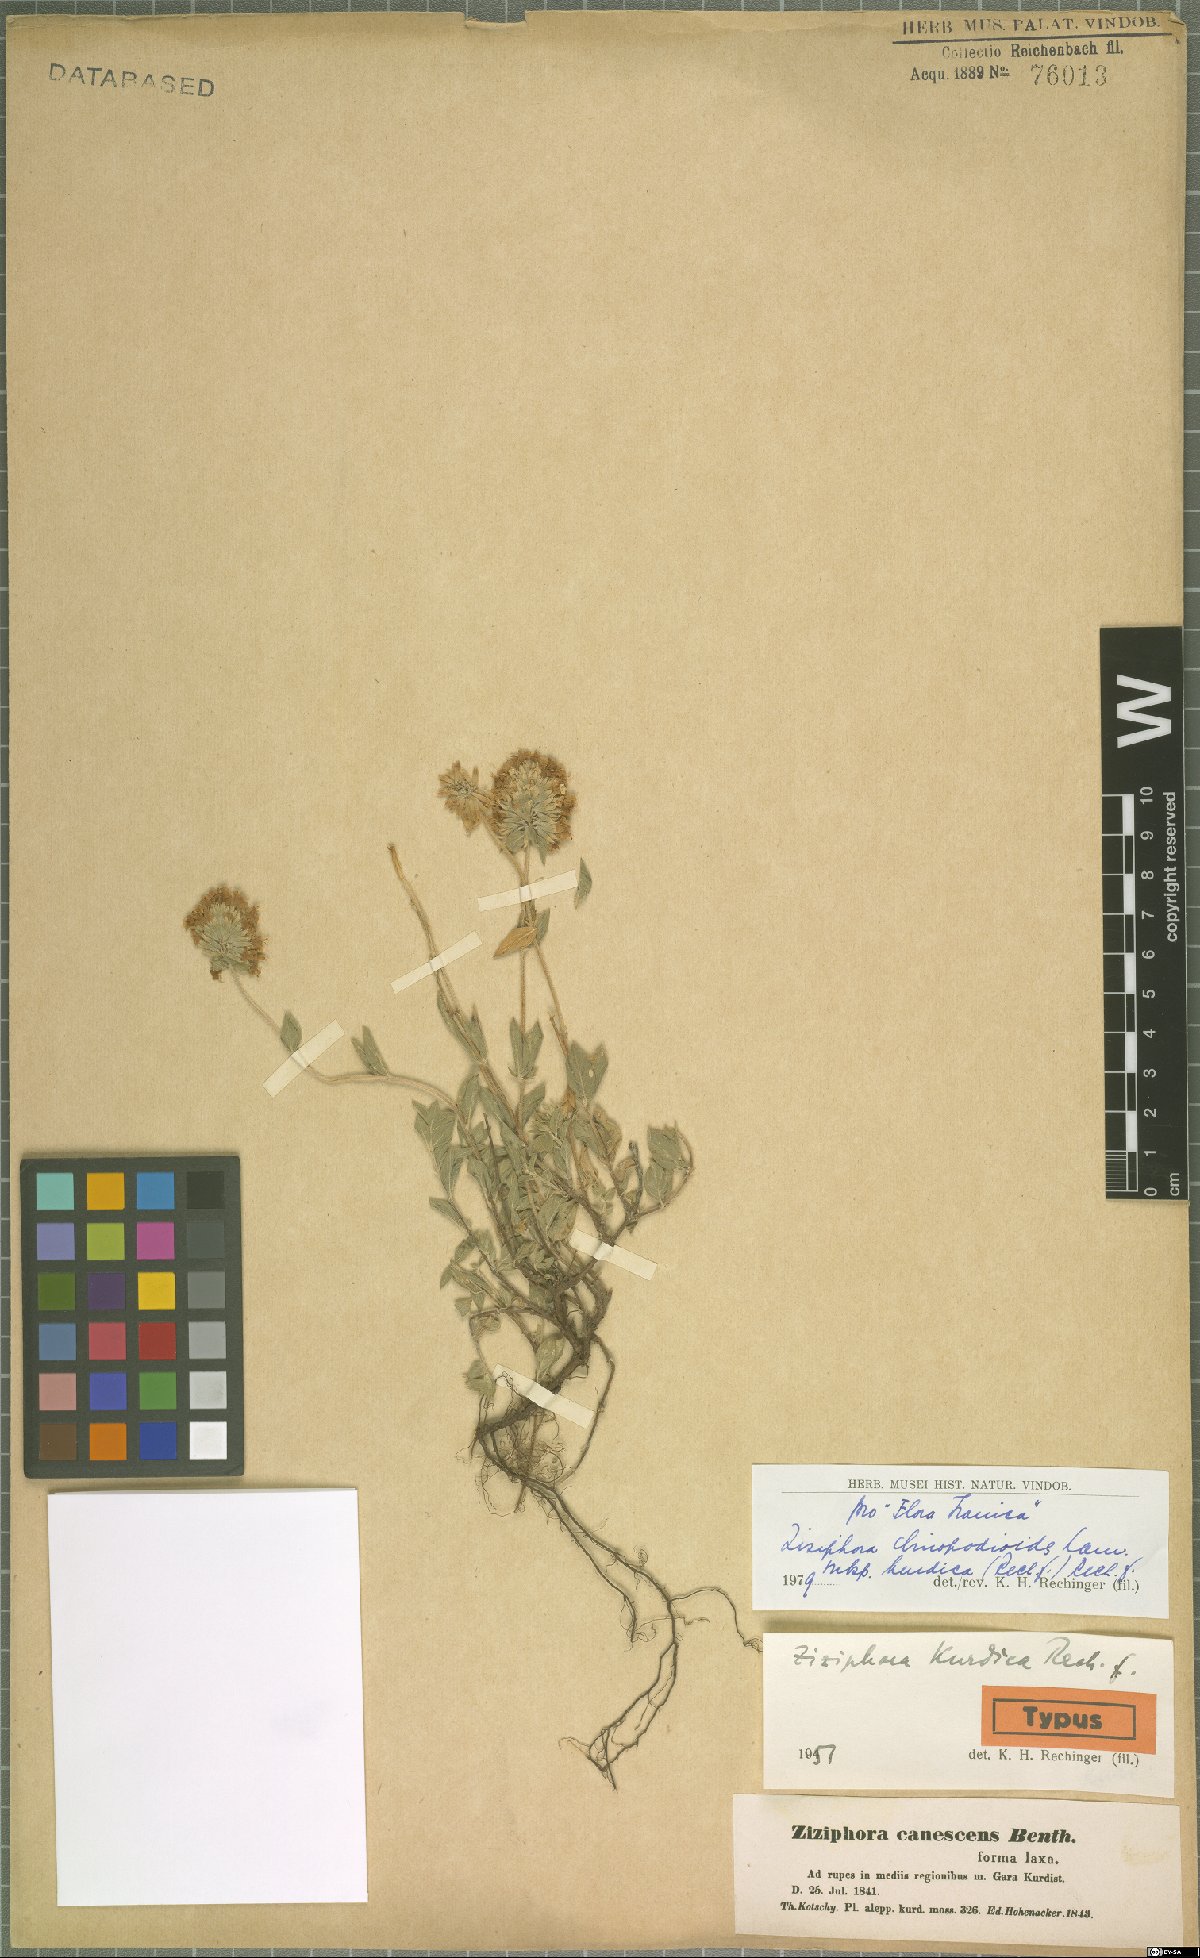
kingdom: Plantae
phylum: Tracheophyta
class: Magnoliopsida
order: Lamiales
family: Lamiaceae
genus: Ziziphora
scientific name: Ziziphora clinopodioides
